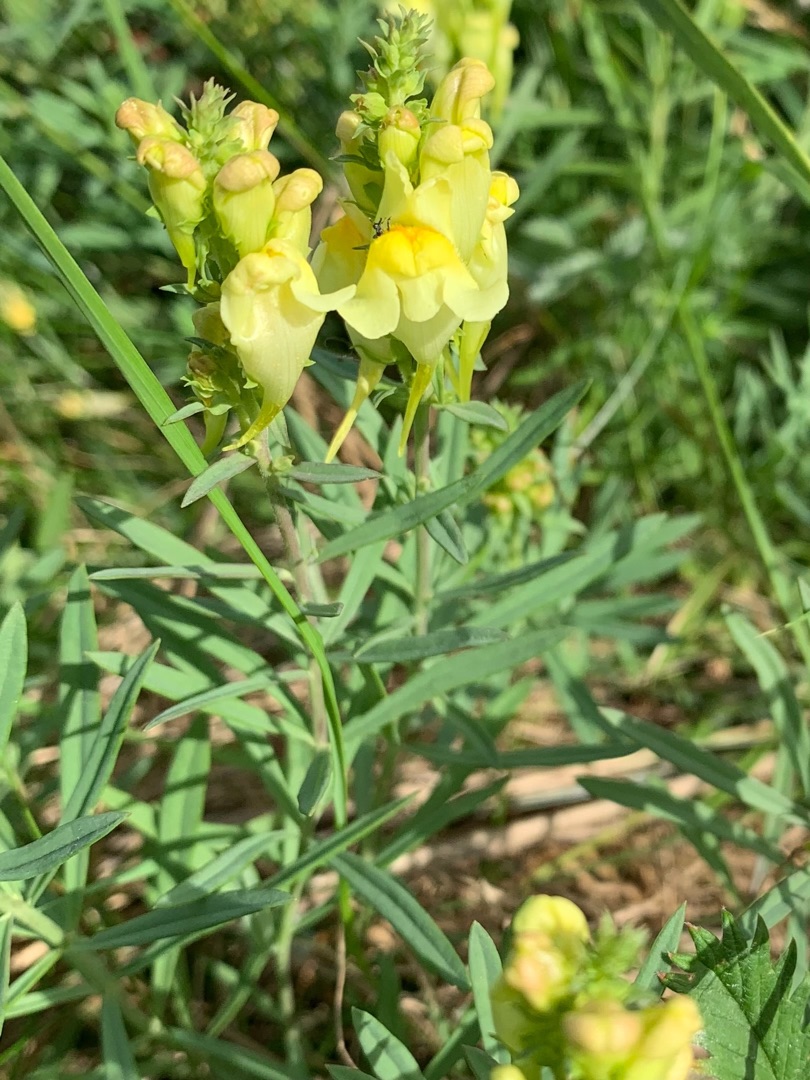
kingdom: Plantae
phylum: Tracheophyta
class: Magnoliopsida
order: Lamiales
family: Plantaginaceae
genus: Linaria
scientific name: Linaria vulgaris
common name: Almindelig torskemund
